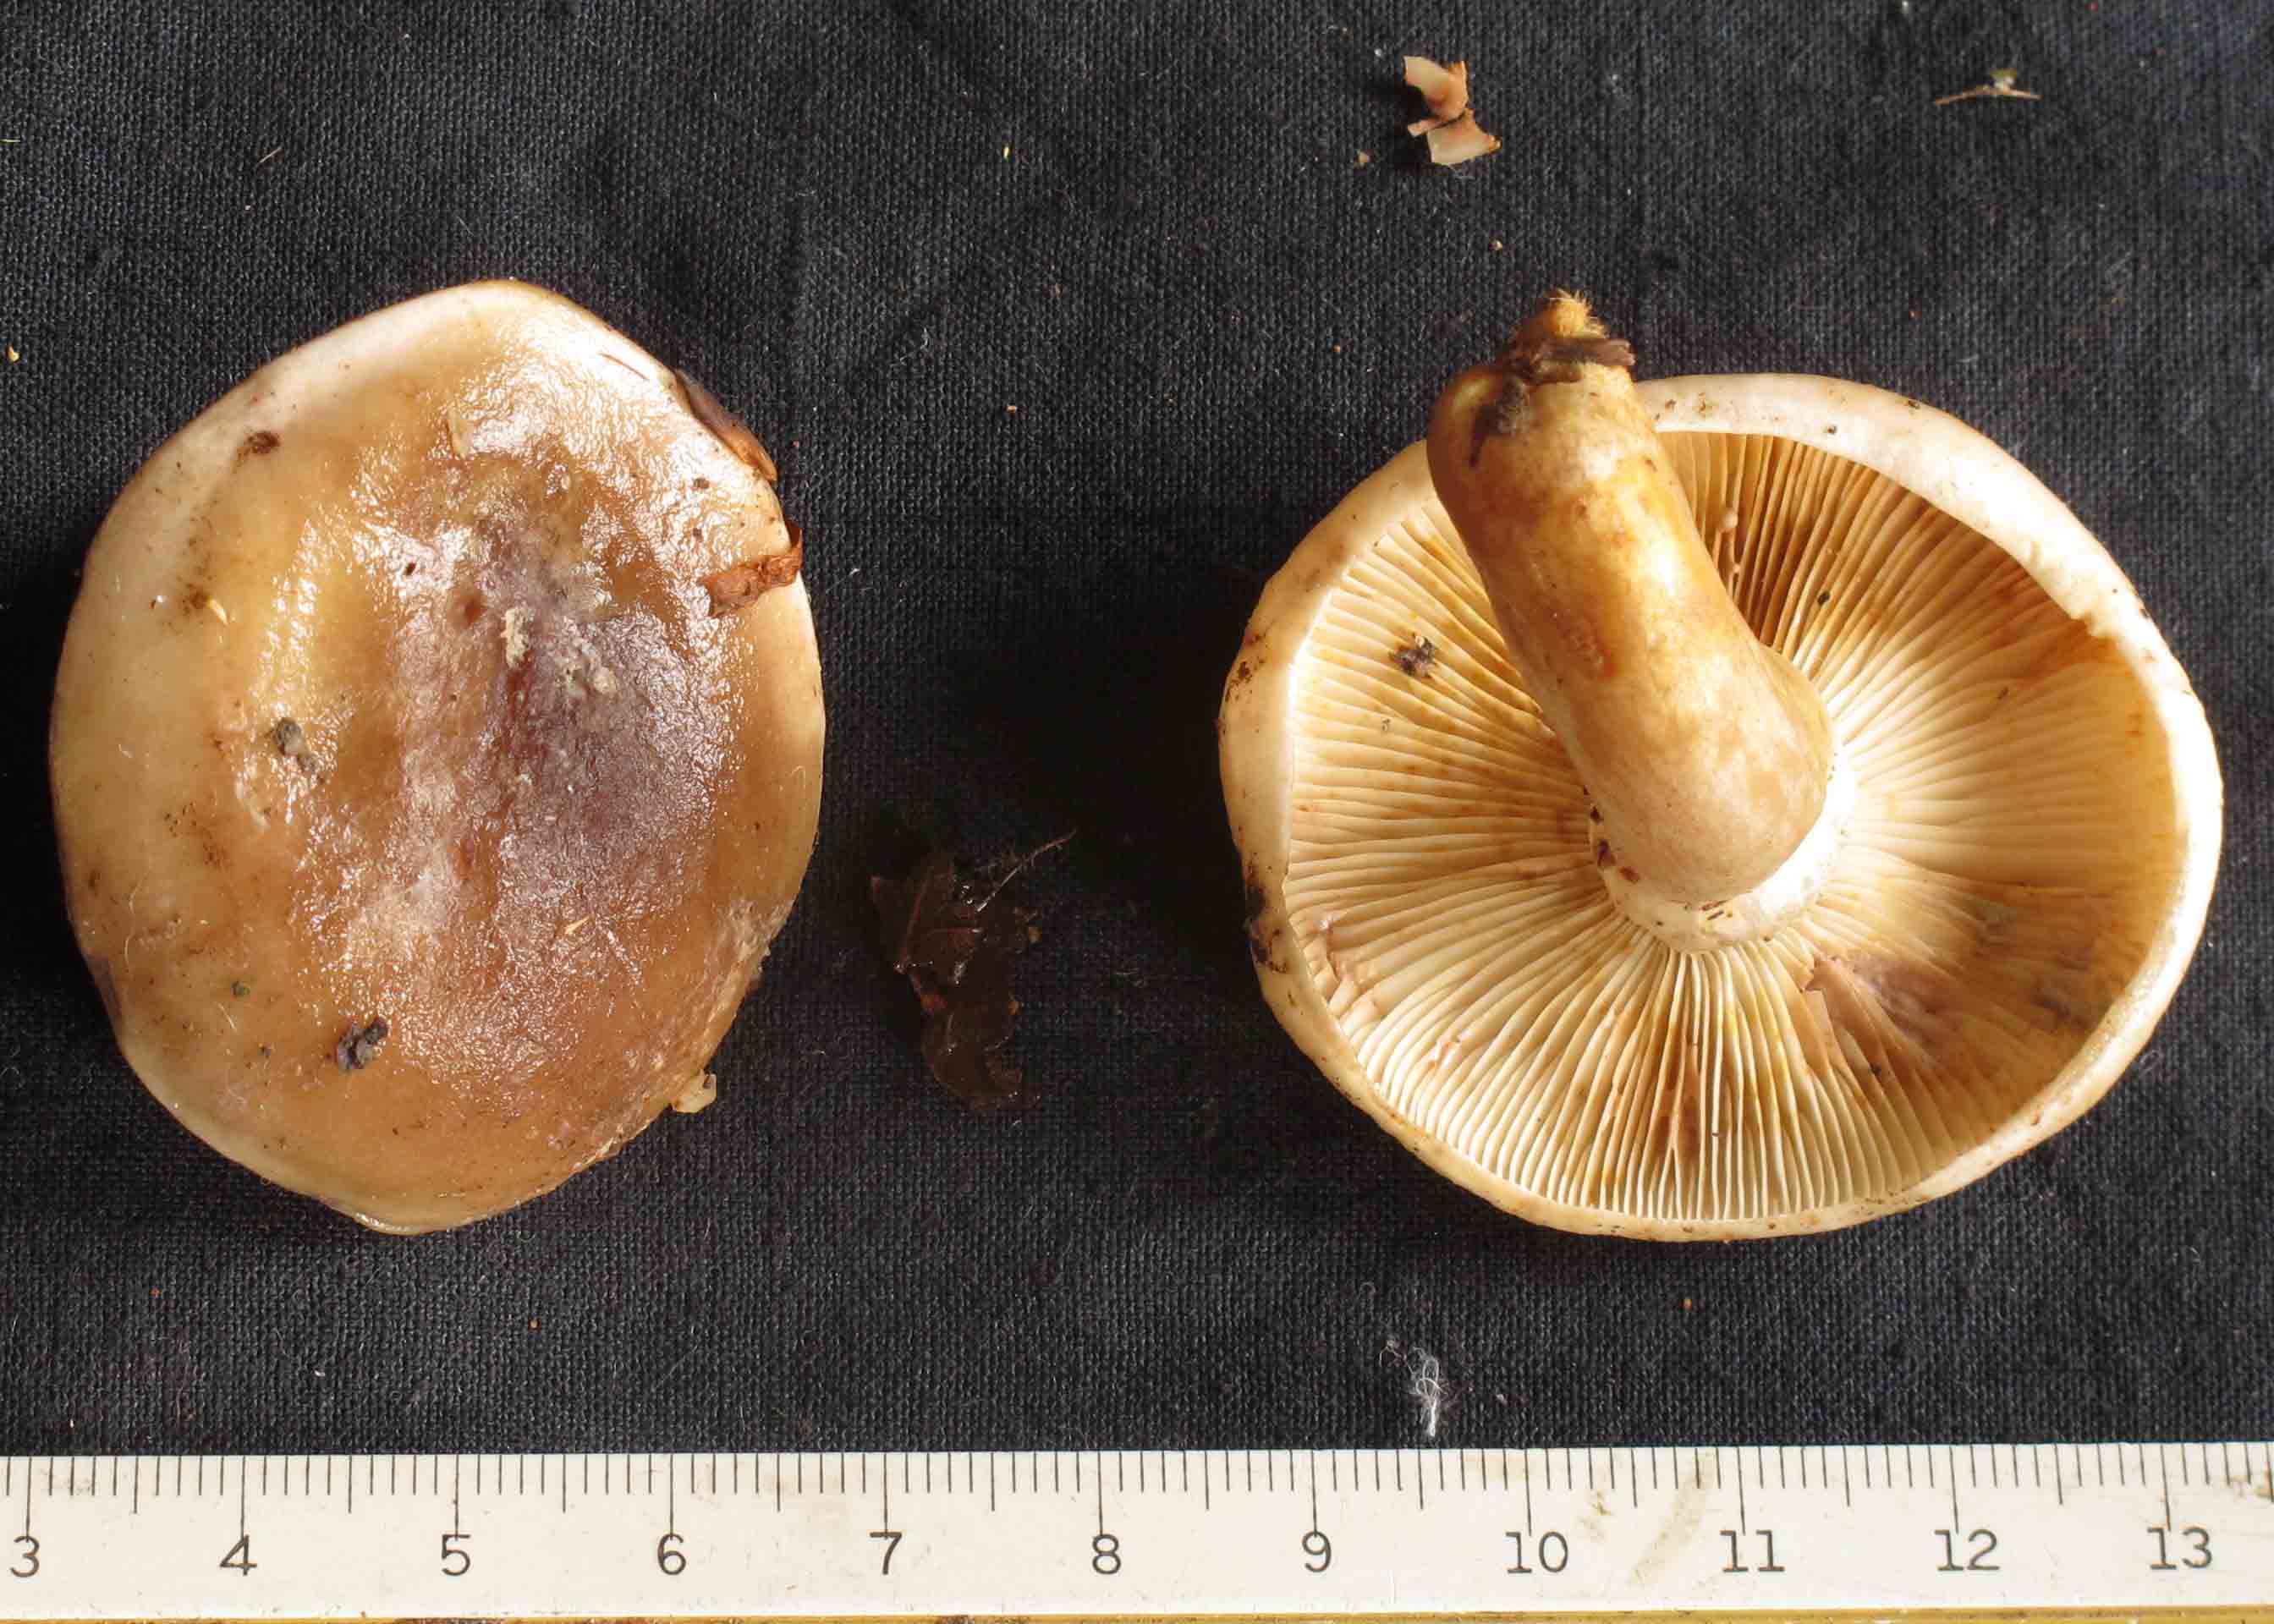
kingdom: Fungi
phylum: Basidiomycota
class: Agaricomycetes
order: Russulales
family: Russulaceae
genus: Lactarius
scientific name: Lactarius fluens
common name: lysrandet mælkehat
